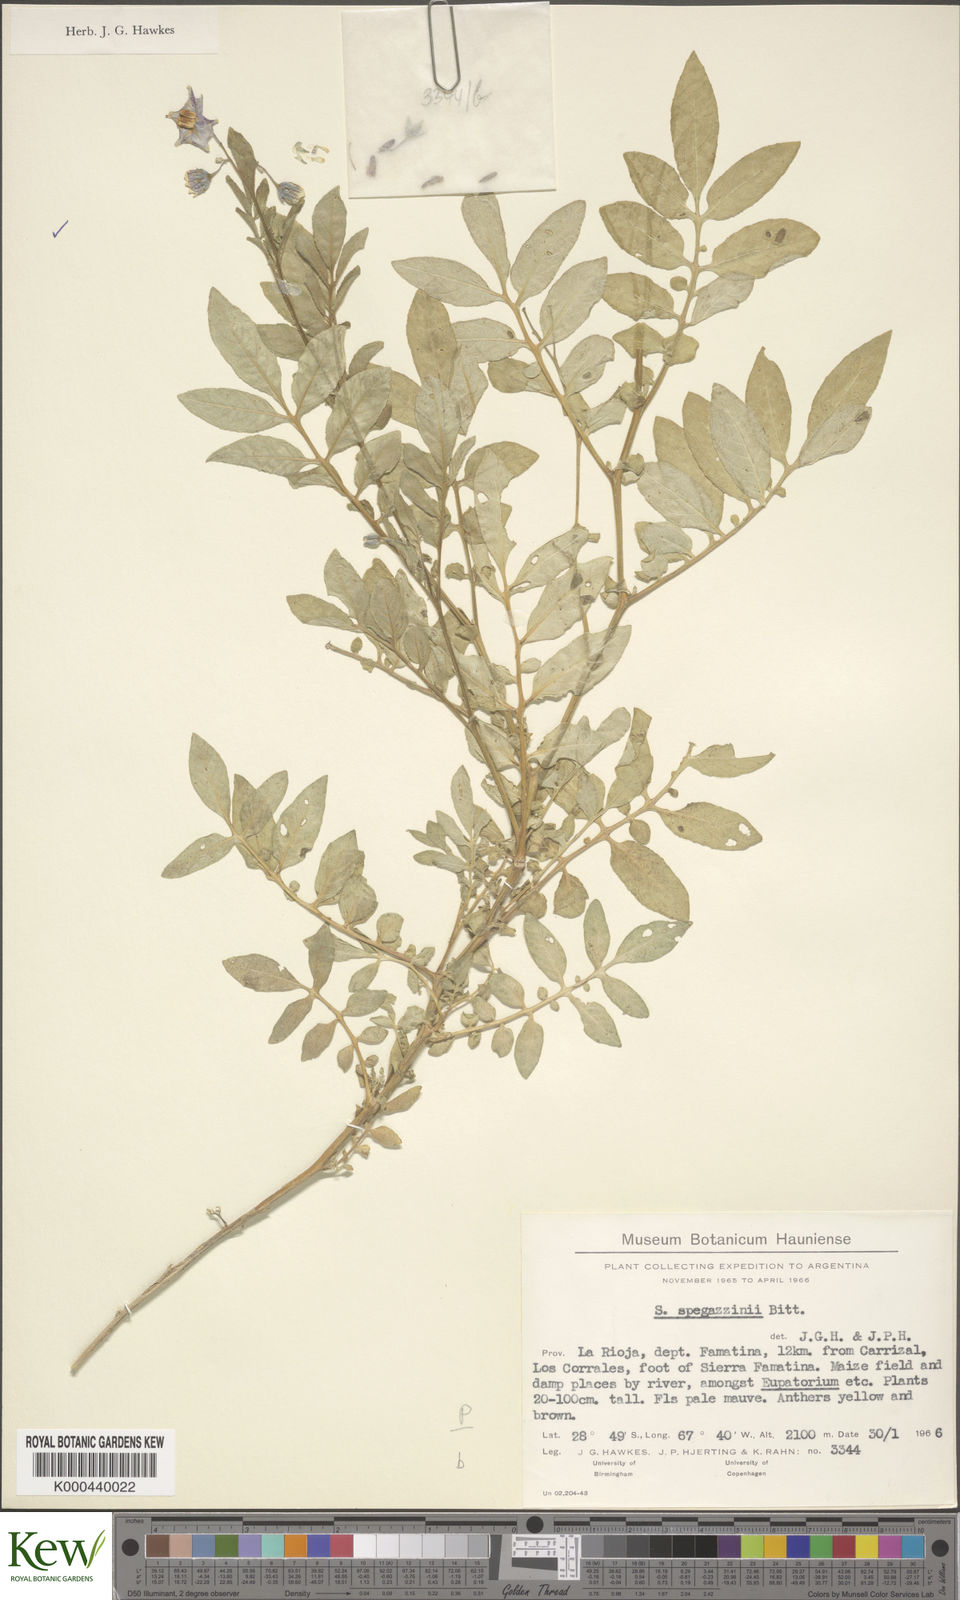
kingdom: Plantae
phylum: Tracheophyta
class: Magnoliopsida
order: Solanales
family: Solanaceae
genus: Solanum
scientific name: Solanum brevicaule
